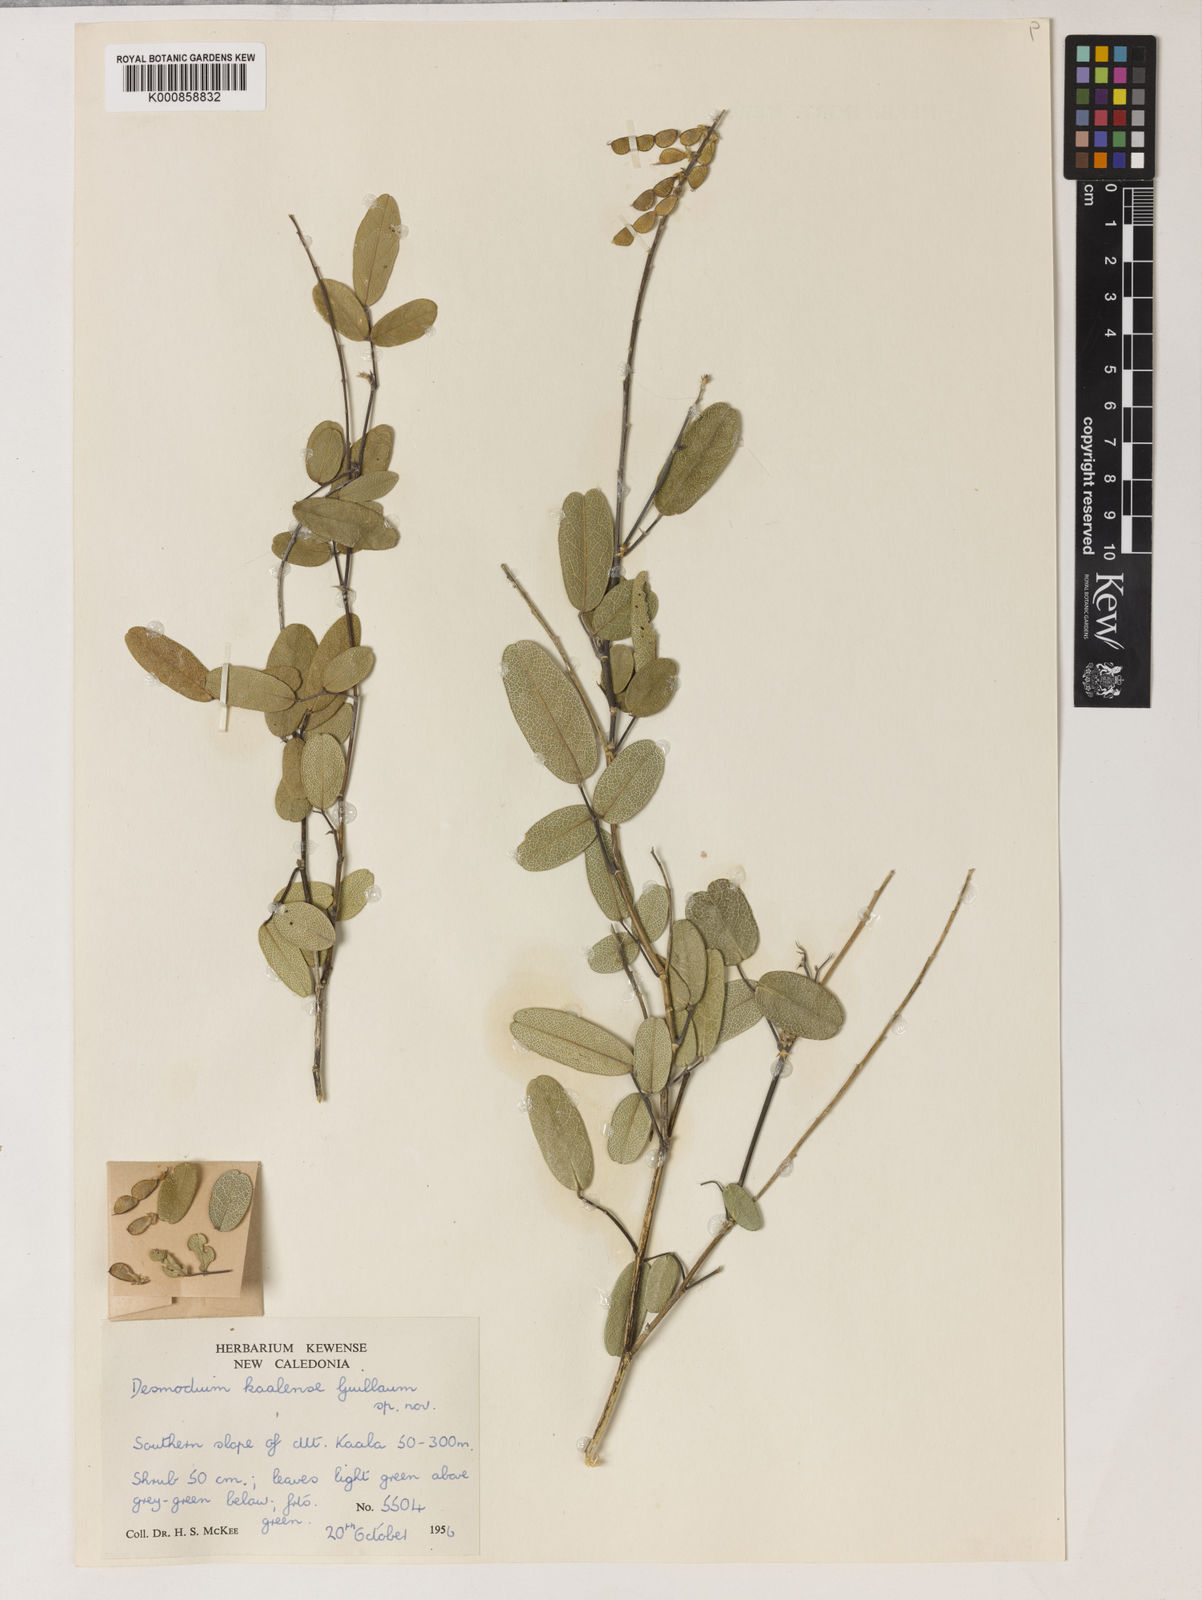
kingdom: Plantae
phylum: Tracheophyta
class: Magnoliopsida
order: Fabales
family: Fabaceae
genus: Oxytes
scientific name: Oxytes kaalensis
